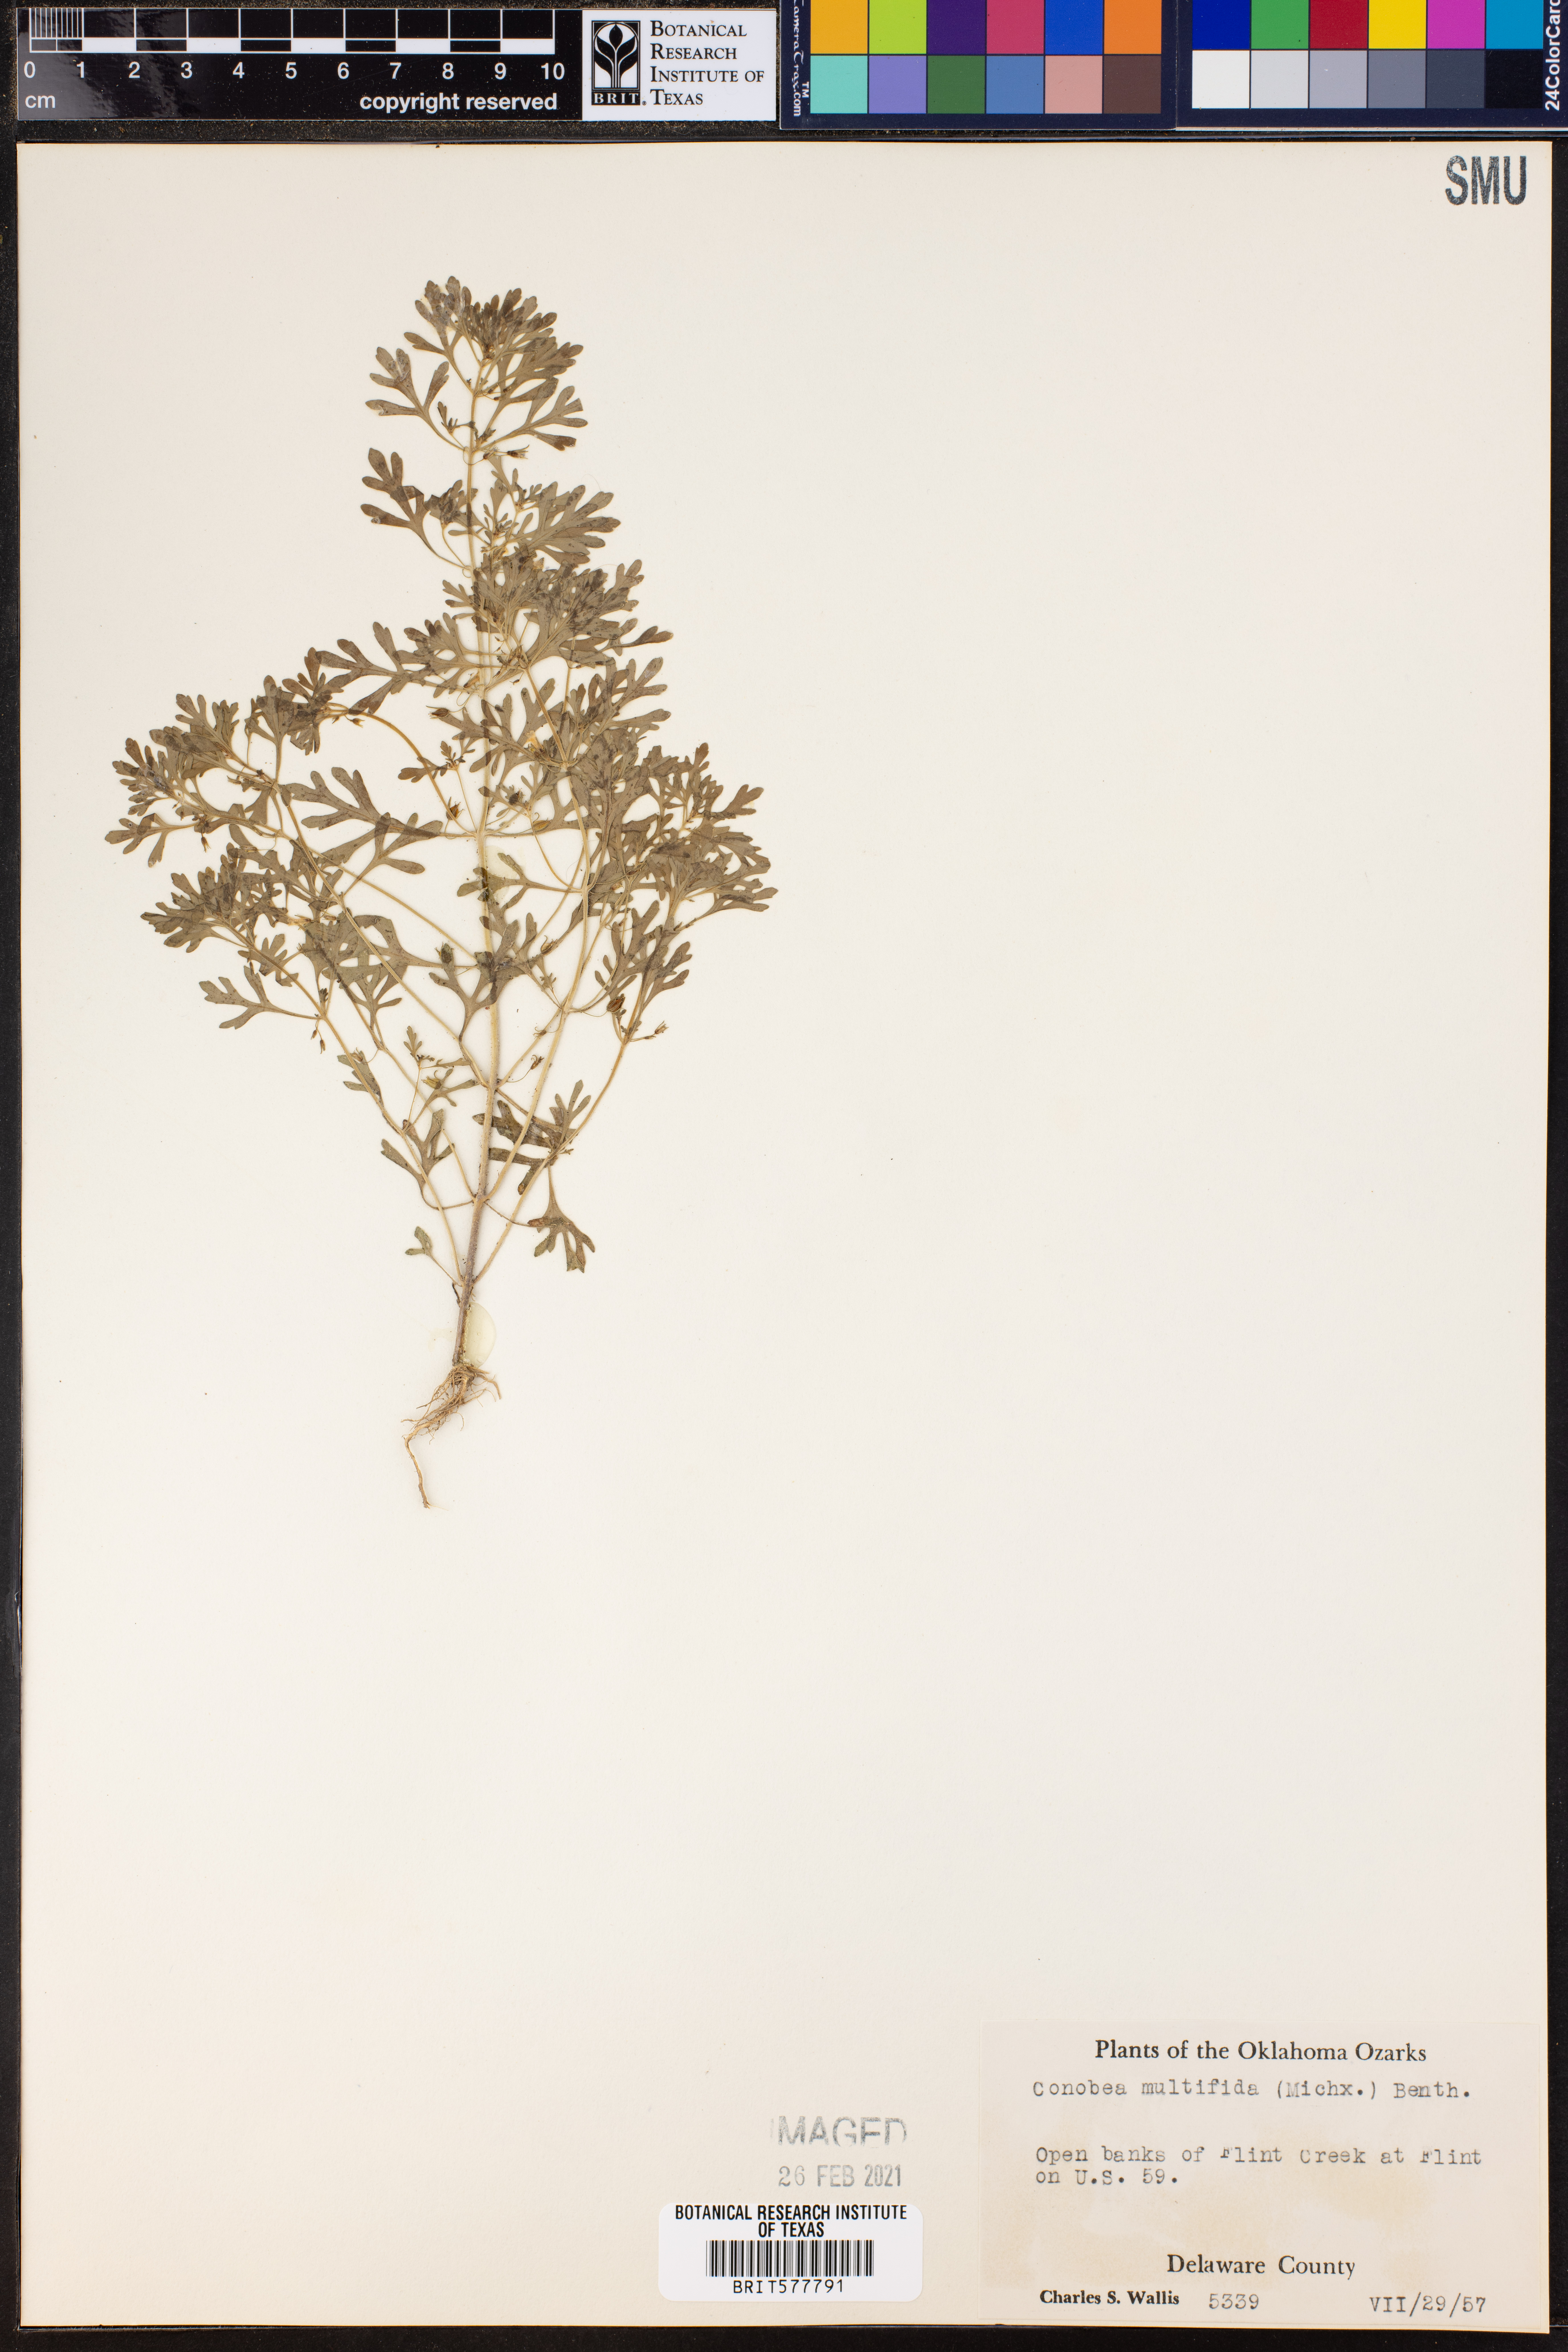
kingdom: Plantae
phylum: Tracheophyta
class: Magnoliopsida
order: Lamiales
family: Plantaginaceae
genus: Leucospora
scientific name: Leucospora multifida
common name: Narrow-leaf paleseed
